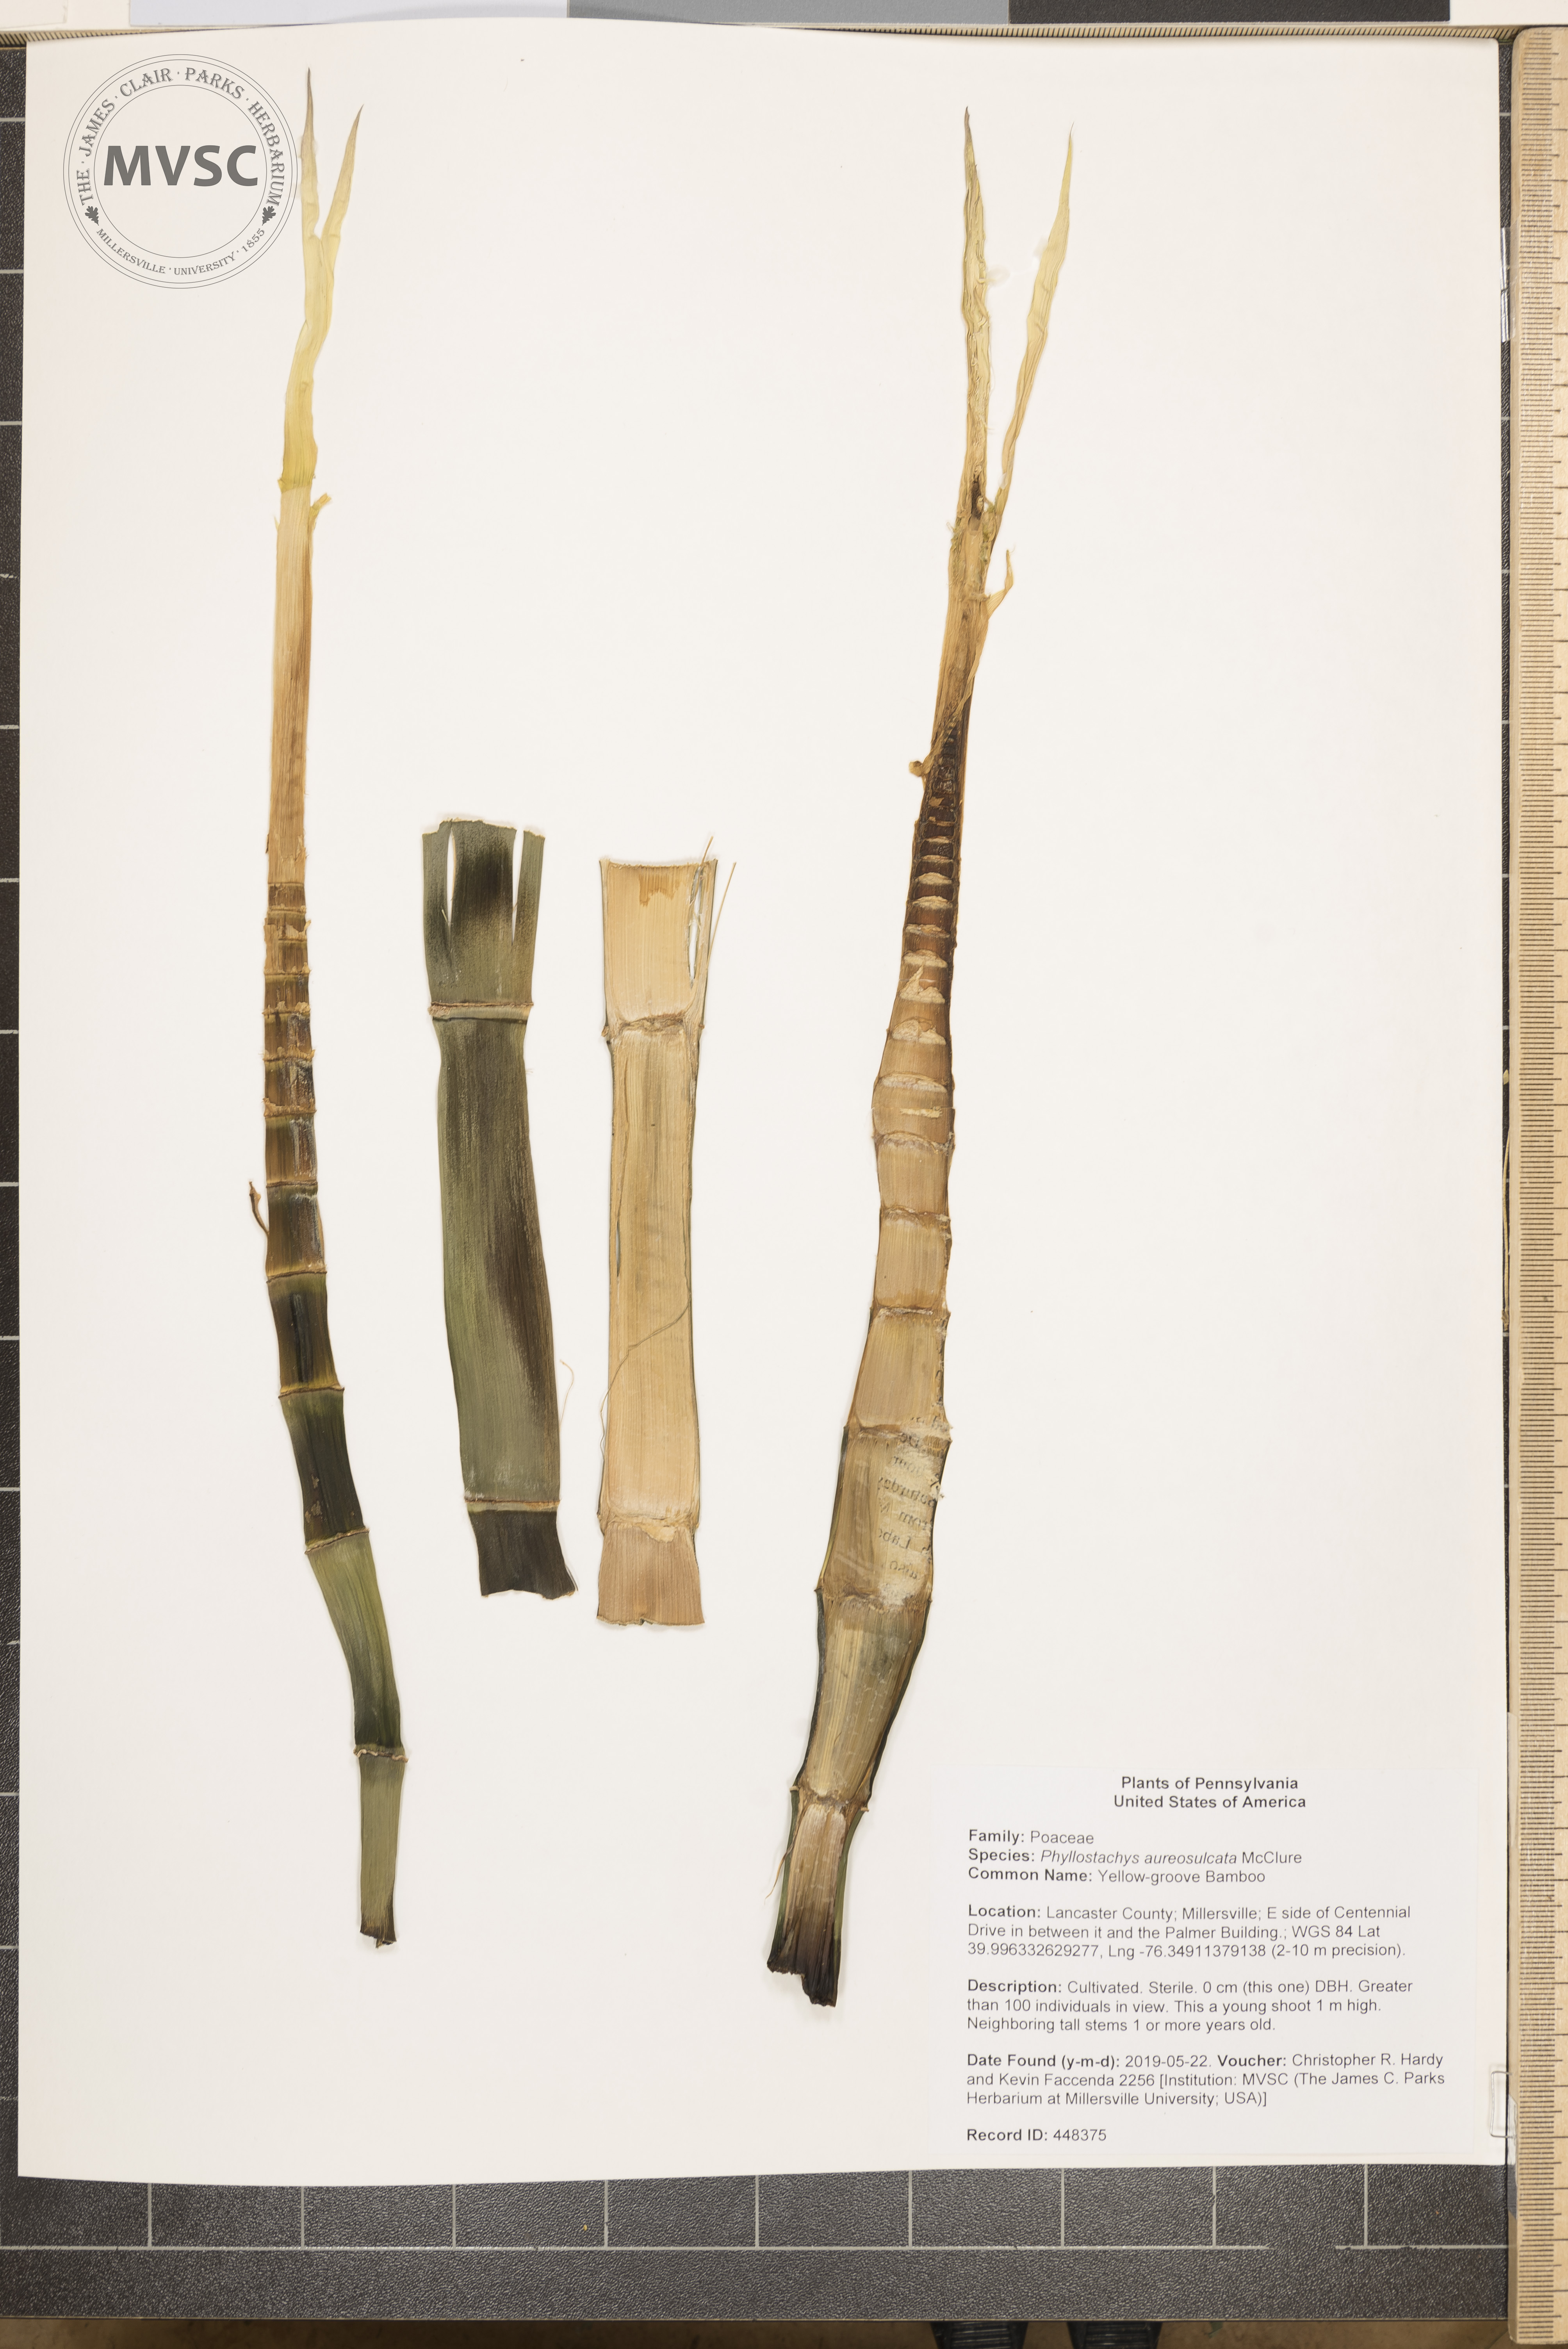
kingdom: Plantae
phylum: Tracheophyta
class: Liliopsida
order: Poales
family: Poaceae
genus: Phyllostachys
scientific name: Phyllostachys aureosulcata
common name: Yellow-groove Bamboo
